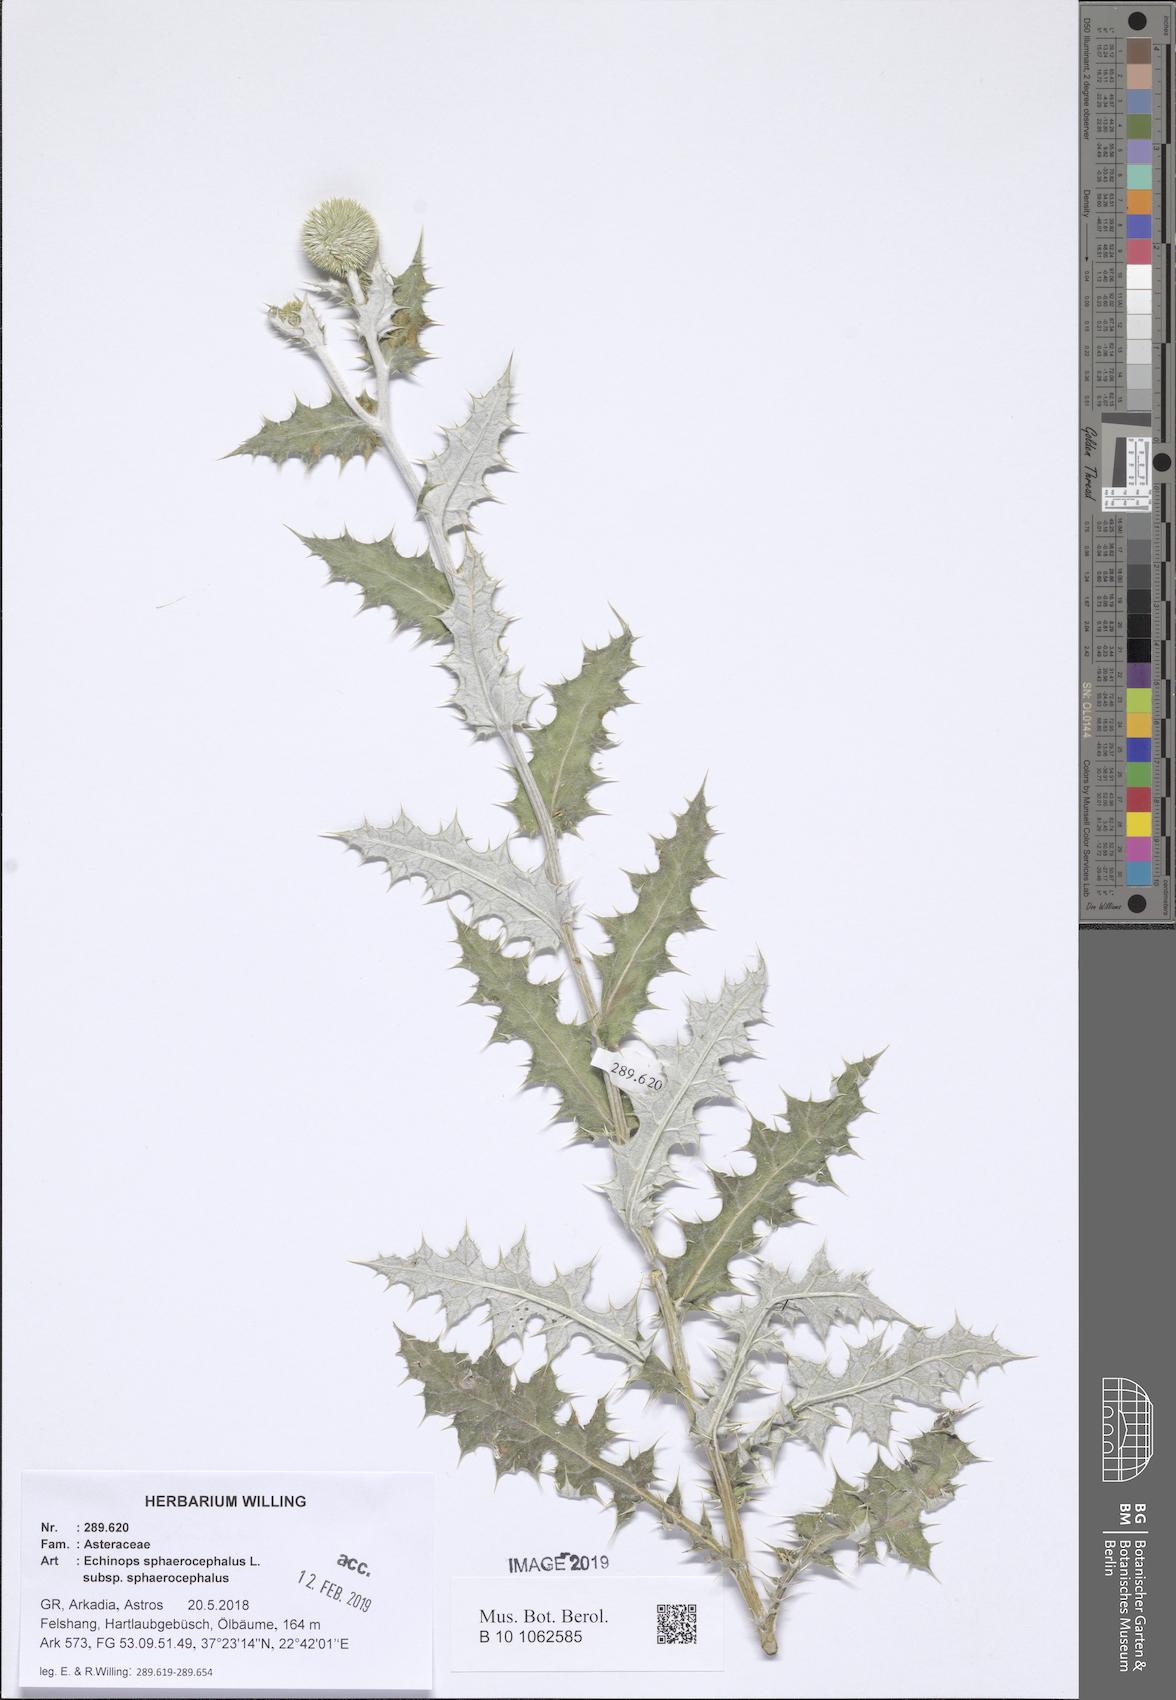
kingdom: Plantae
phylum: Tracheophyta
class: Magnoliopsida
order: Asterales
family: Asteraceae
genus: Echinops
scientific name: Echinops sphaerocephalus
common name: Glandular globe-thistle
